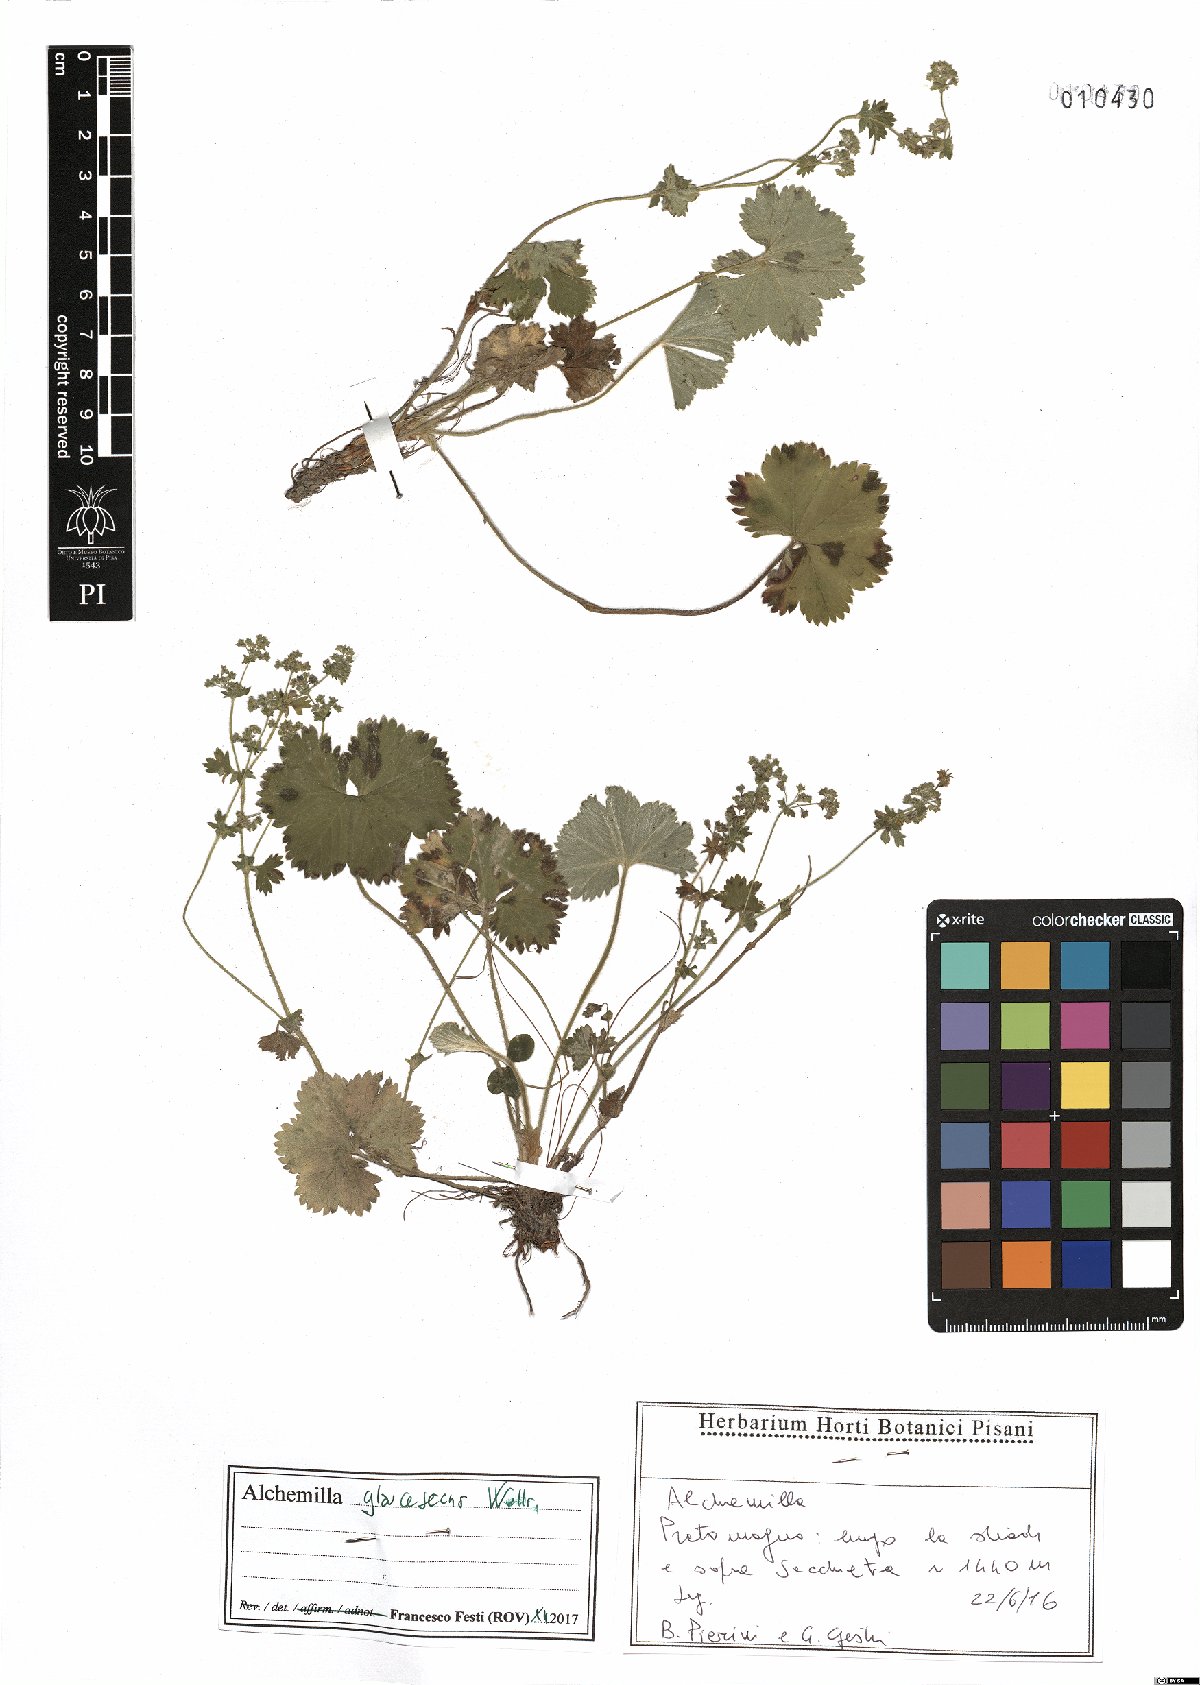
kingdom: Plantae
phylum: Tracheophyta
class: Magnoliopsida
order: Rosales
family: Rosaceae
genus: Alchemilla
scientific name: Alchemilla glaucescens
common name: Silky lady's mantle
